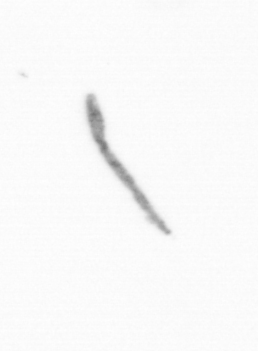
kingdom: Chromista
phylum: Ochrophyta
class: Bacillariophyceae
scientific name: Bacillariophyceae
